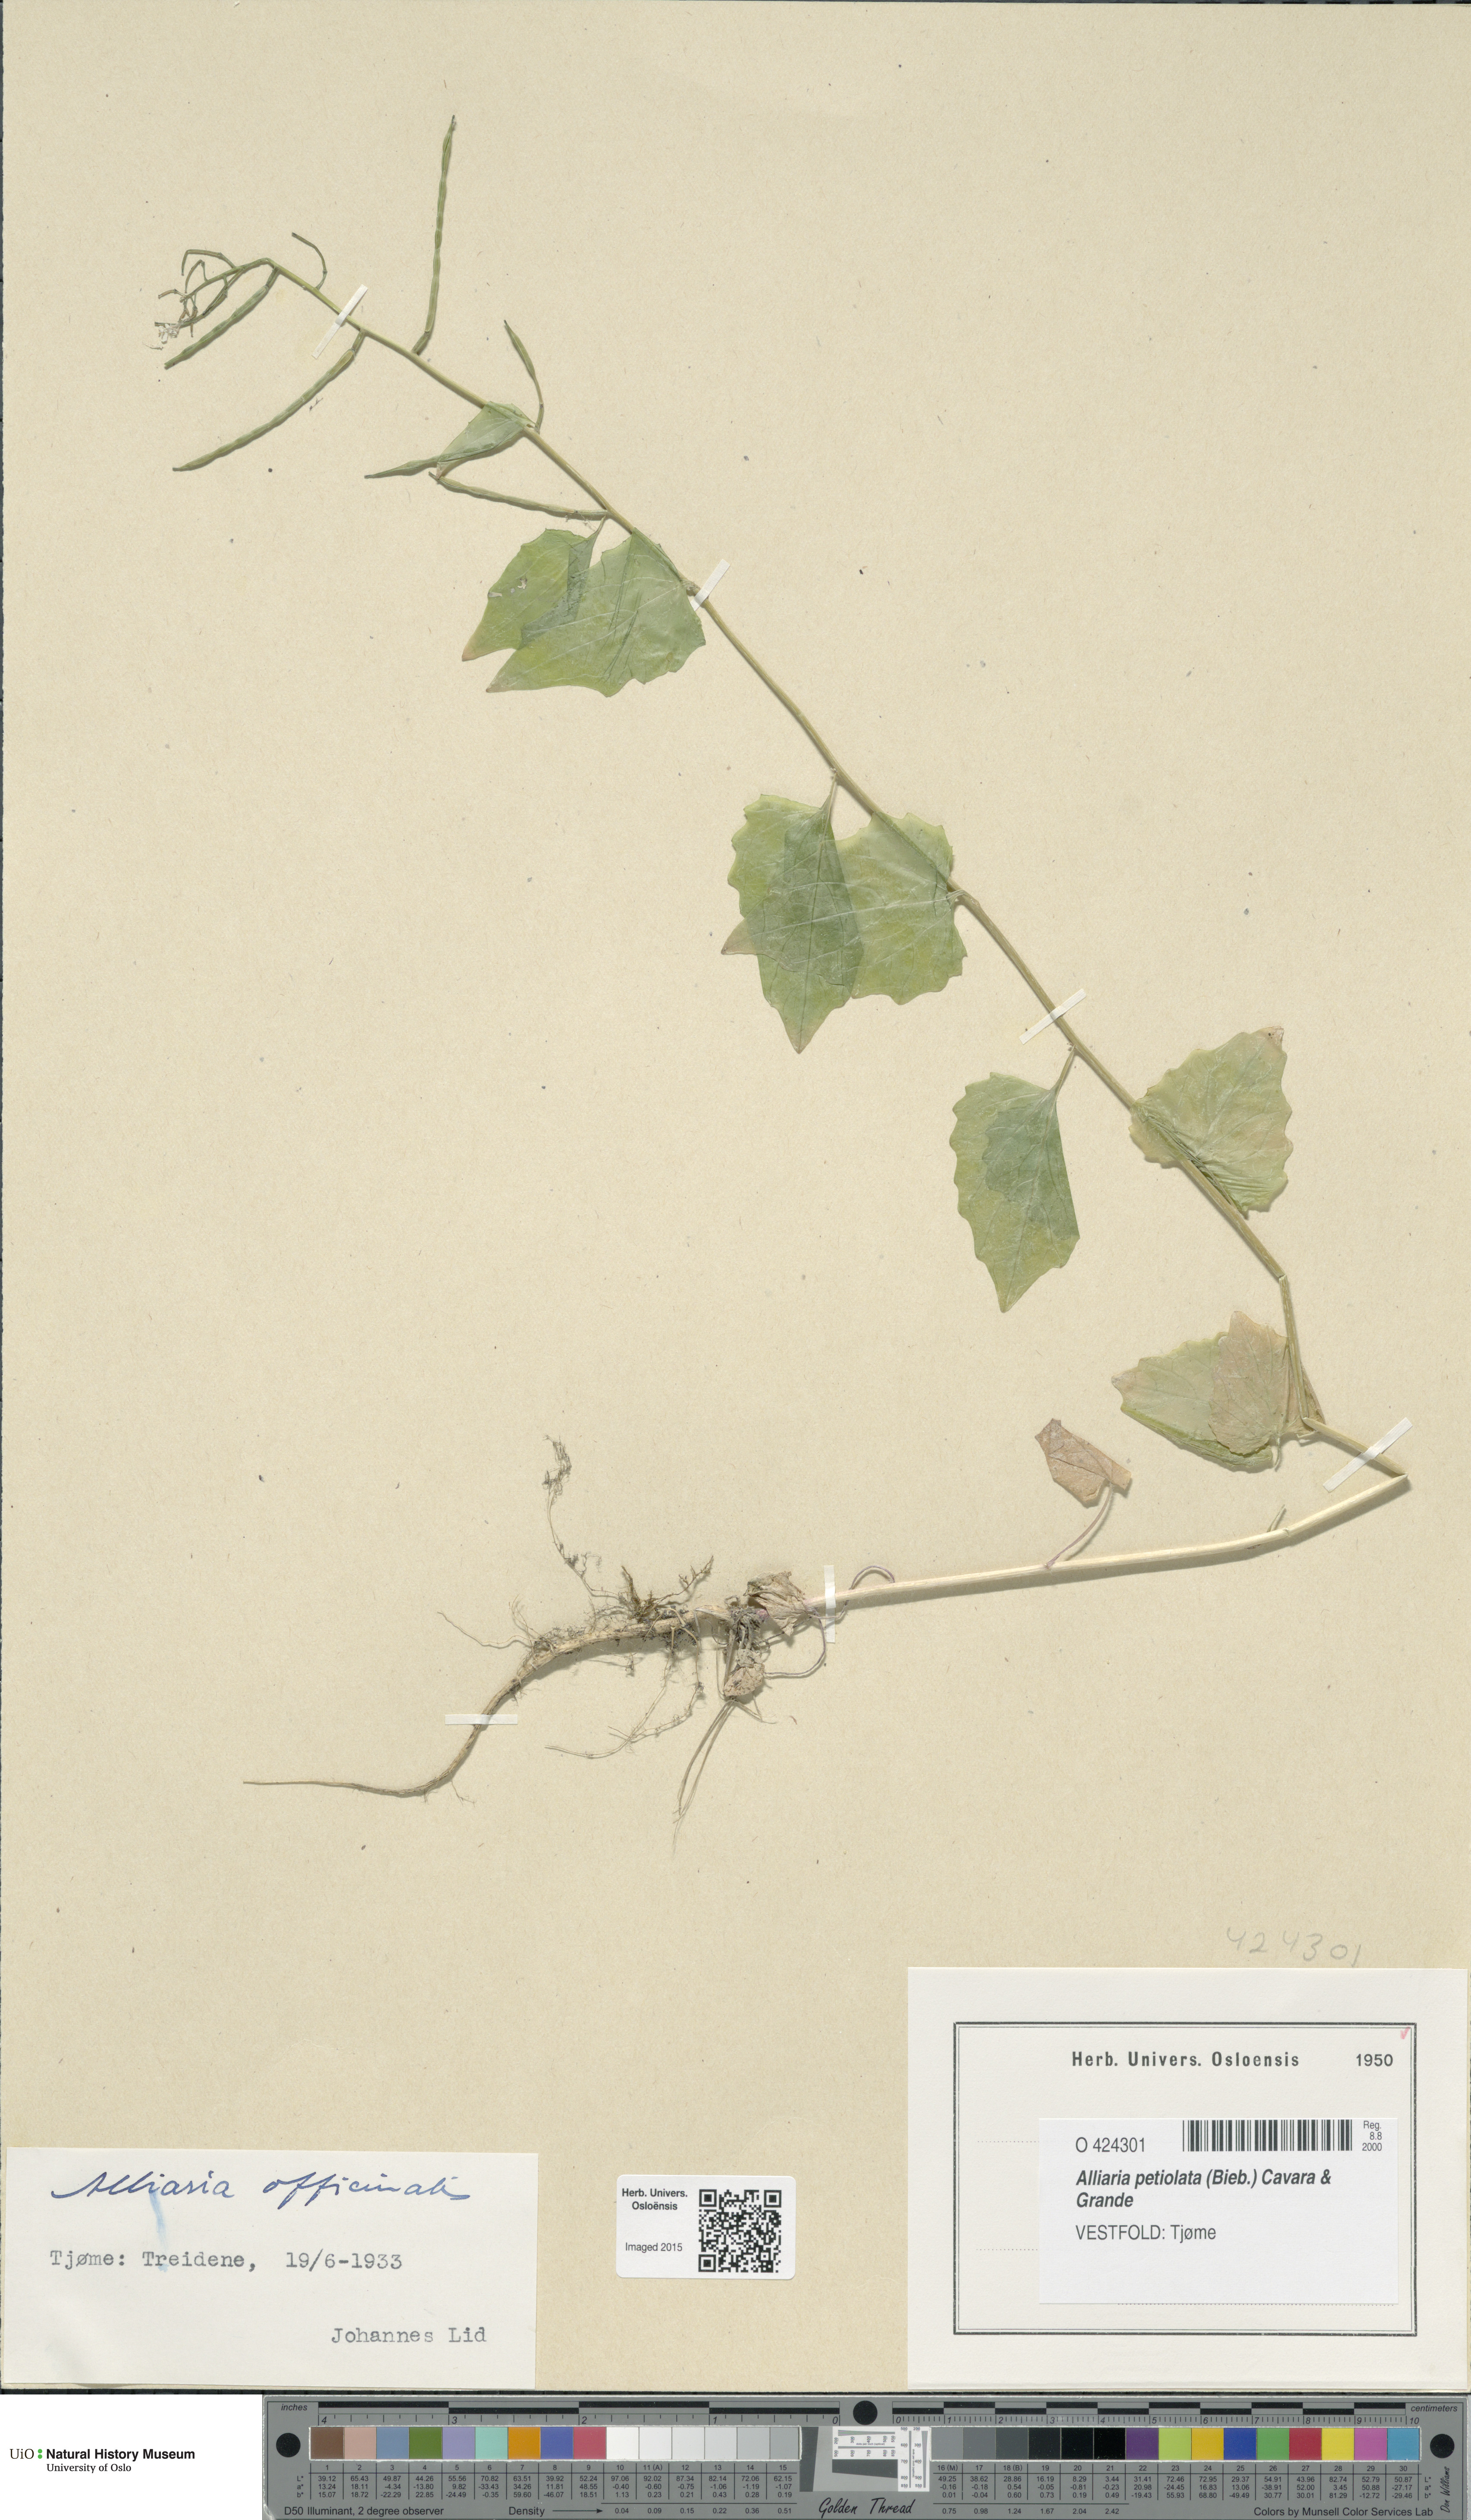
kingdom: Plantae
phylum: Tracheophyta
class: Magnoliopsida
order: Brassicales
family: Brassicaceae
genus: Alliaria
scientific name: Alliaria petiolata
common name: Garlic mustard
